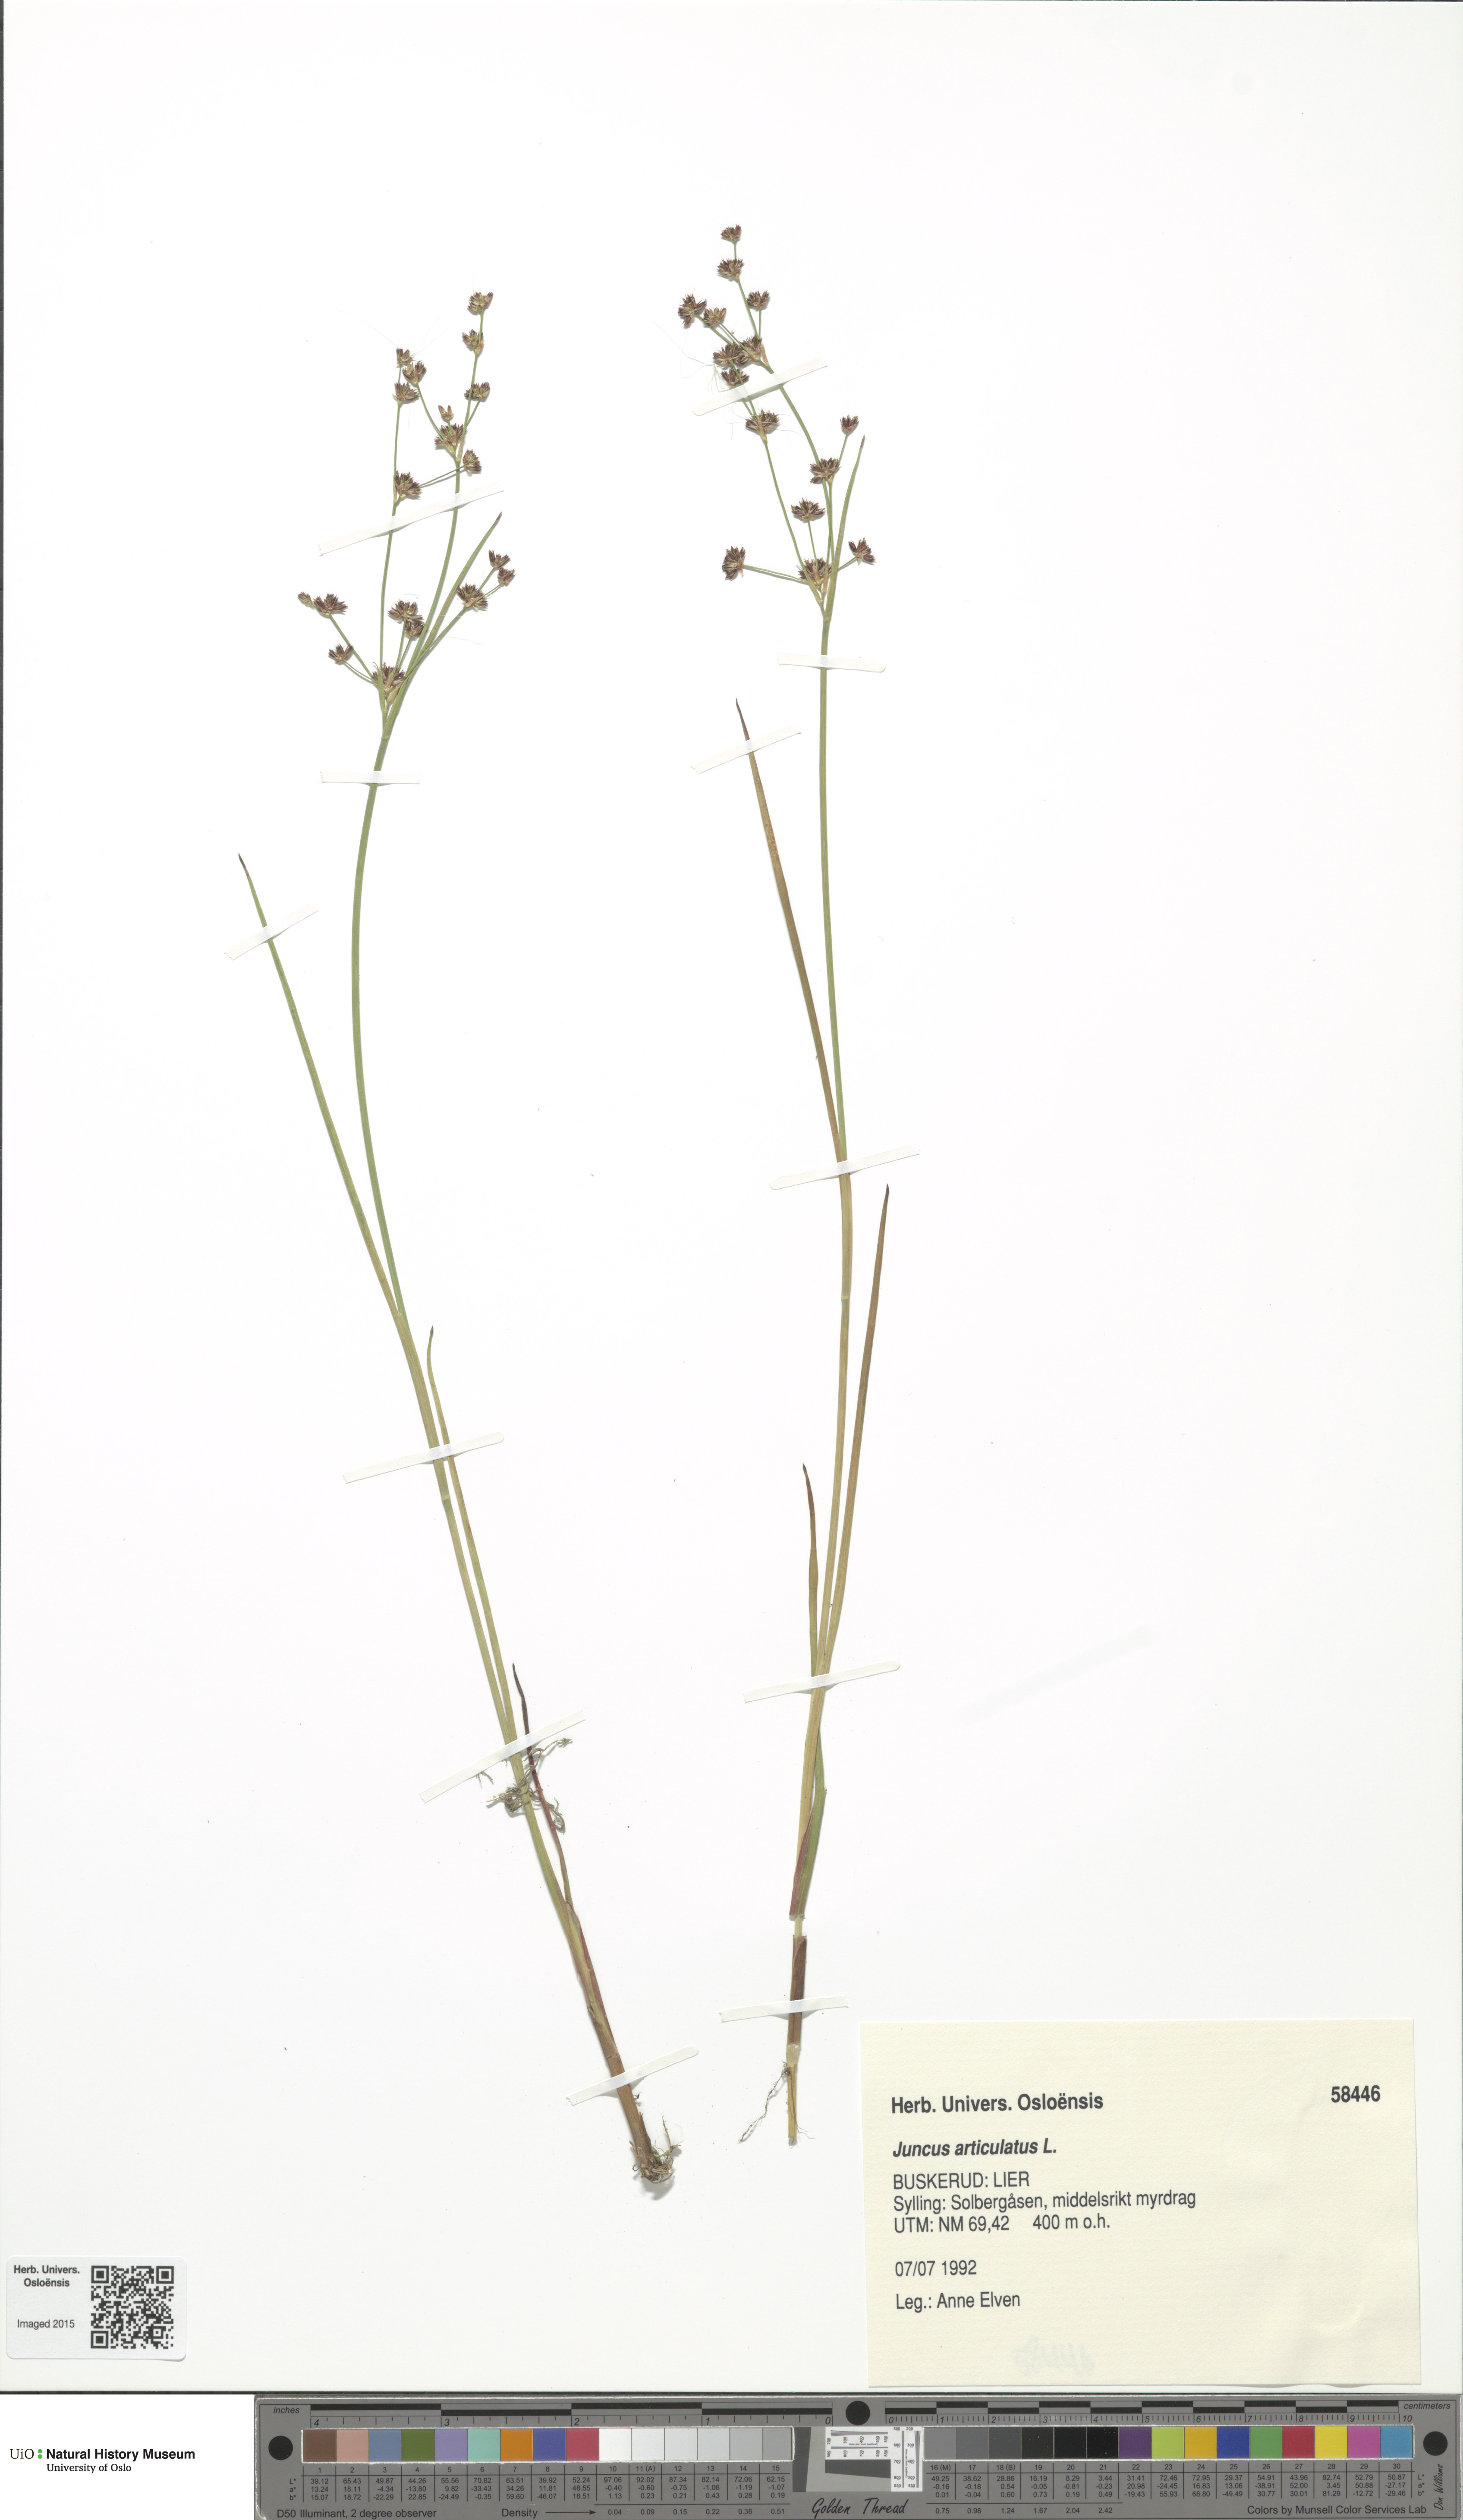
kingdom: Plantae
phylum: Tracheophyta
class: Liliopsida
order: Poales
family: Juncaceae
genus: Juncus
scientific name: Juncus articulatus
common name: Jointed rush
